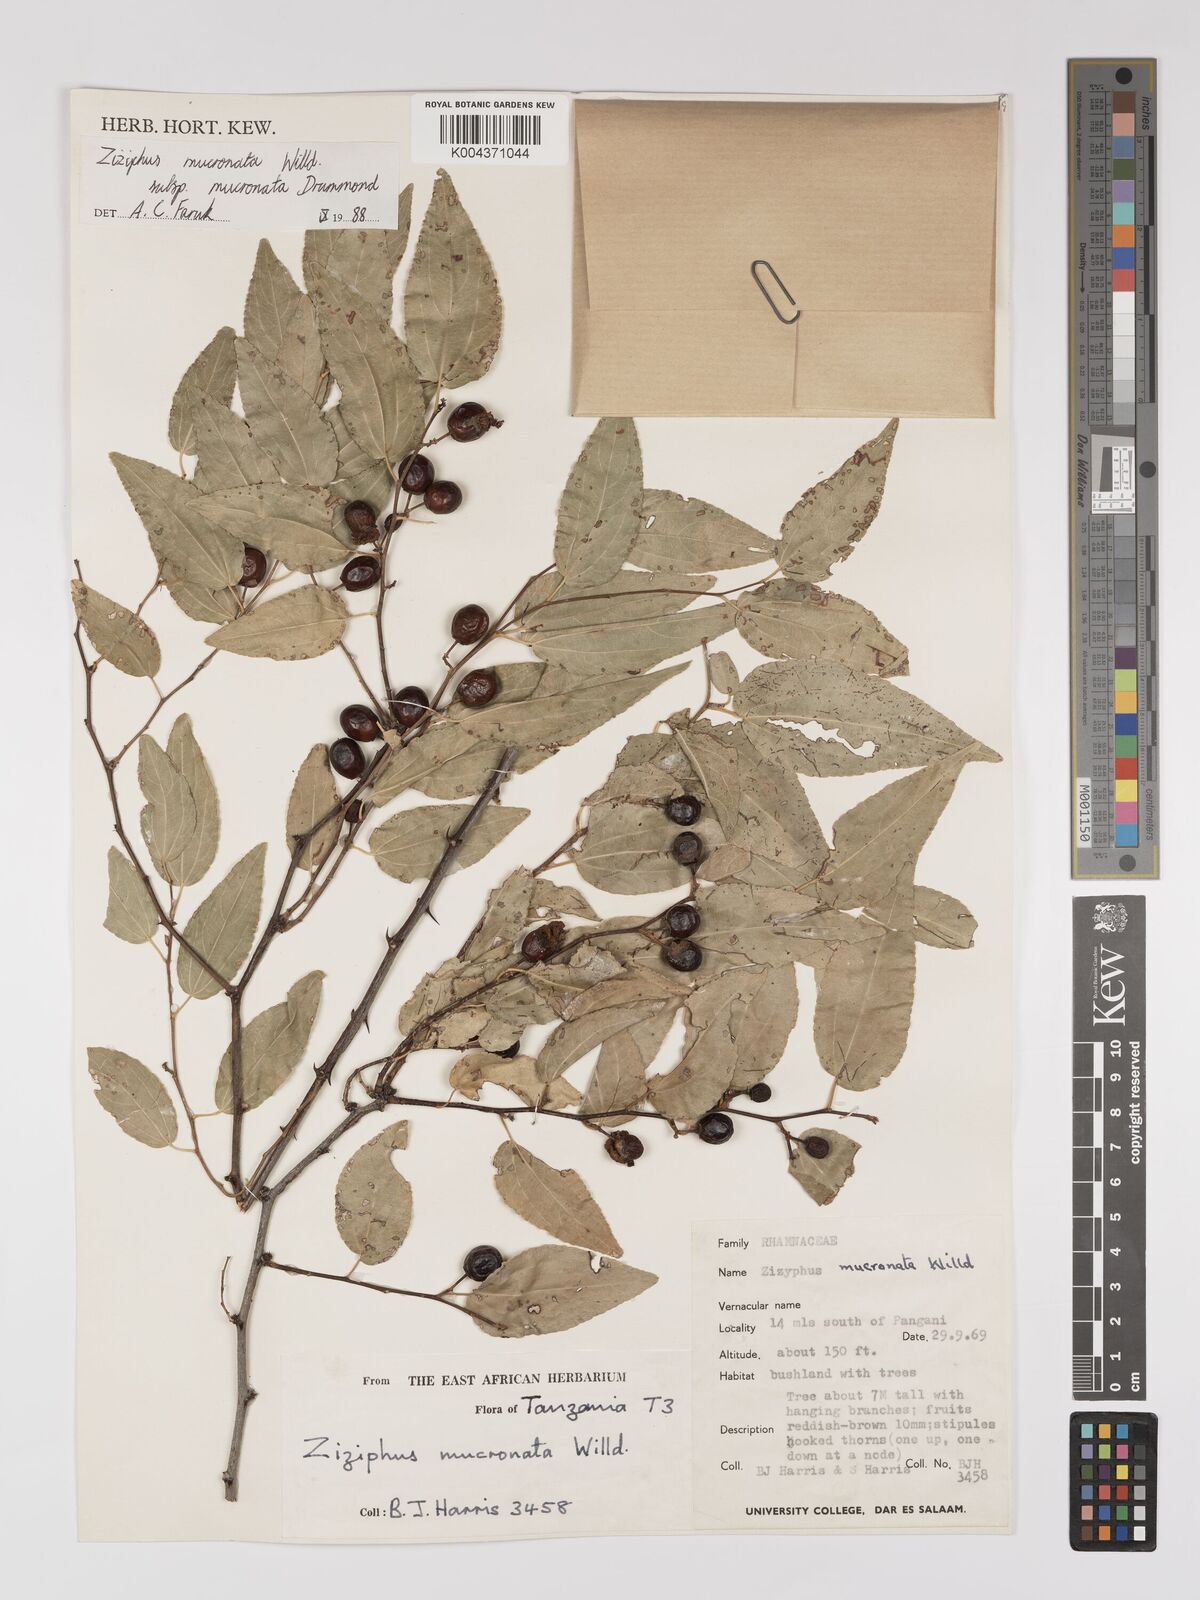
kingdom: Plantae
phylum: Tracheophyta
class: Magnoliopsida
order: Rosales
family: Rhamnaceae
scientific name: Rhamnaceae
